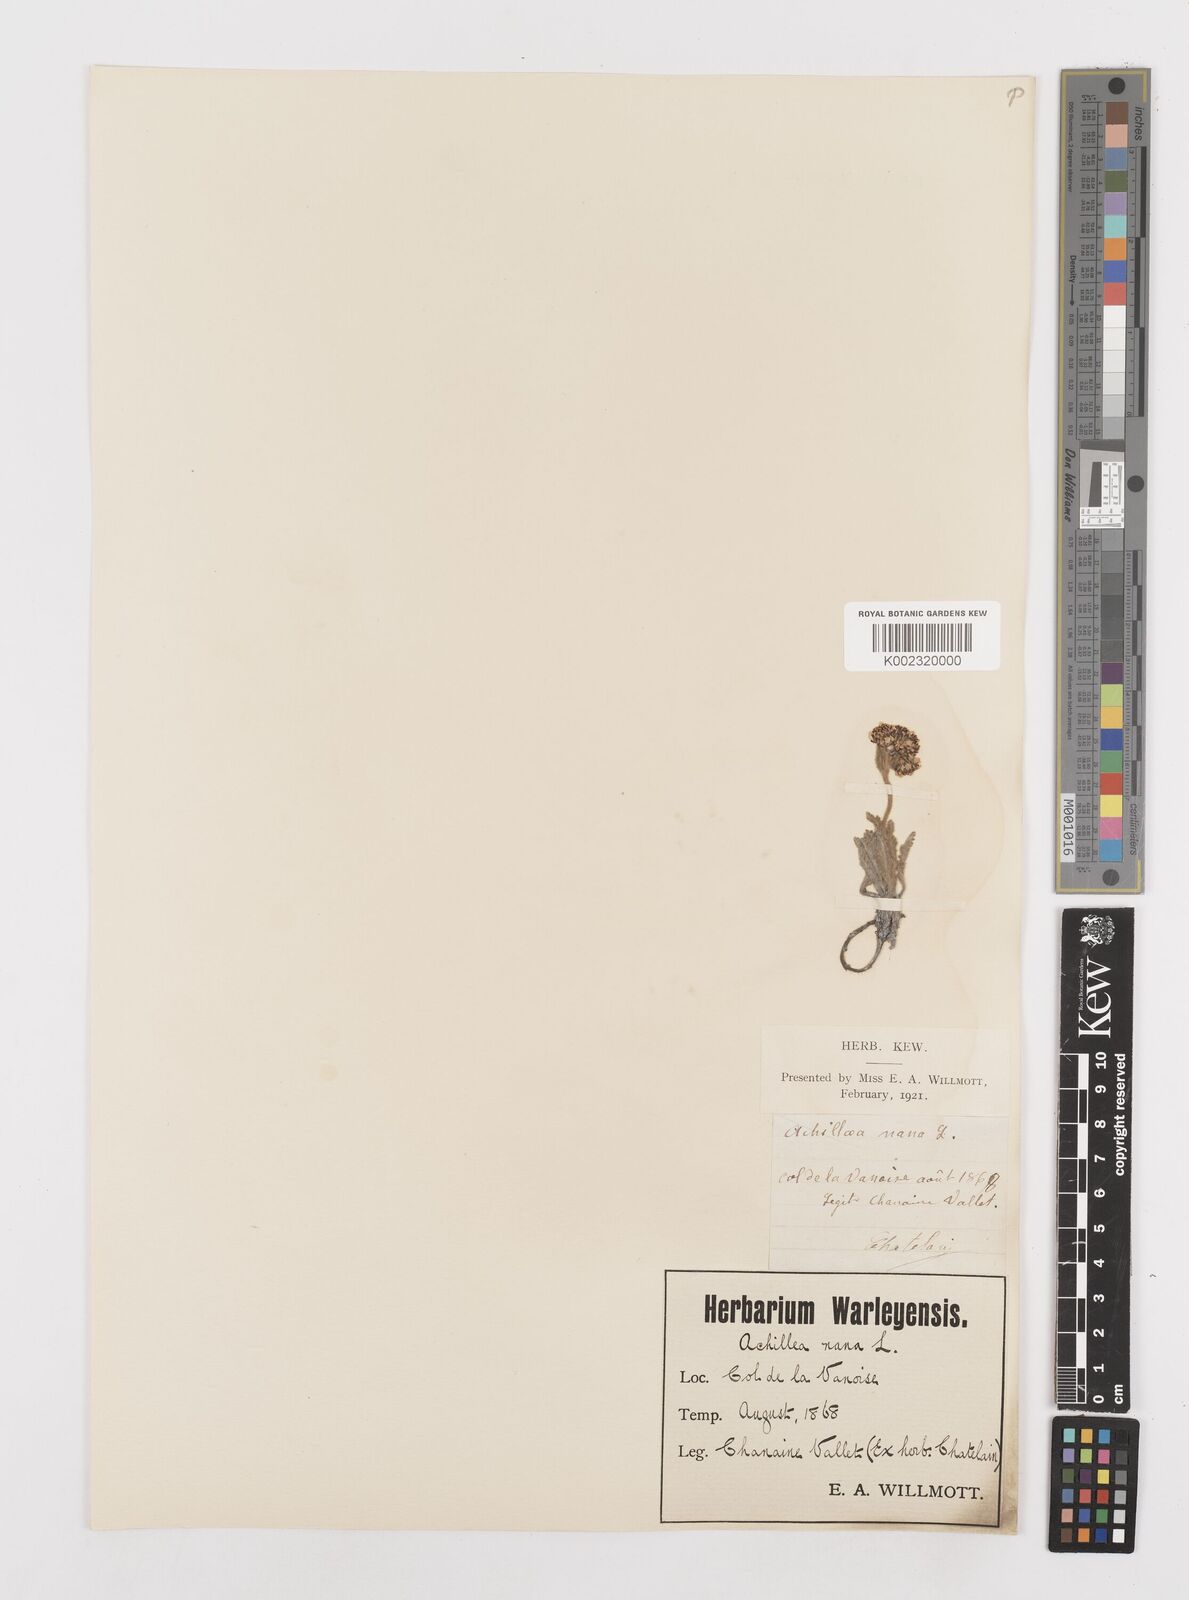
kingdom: Plantae
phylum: Tracheophyta
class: Magnoliopsida
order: Asterales
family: Asteraceae
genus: Achillea
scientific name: Achillea nana
